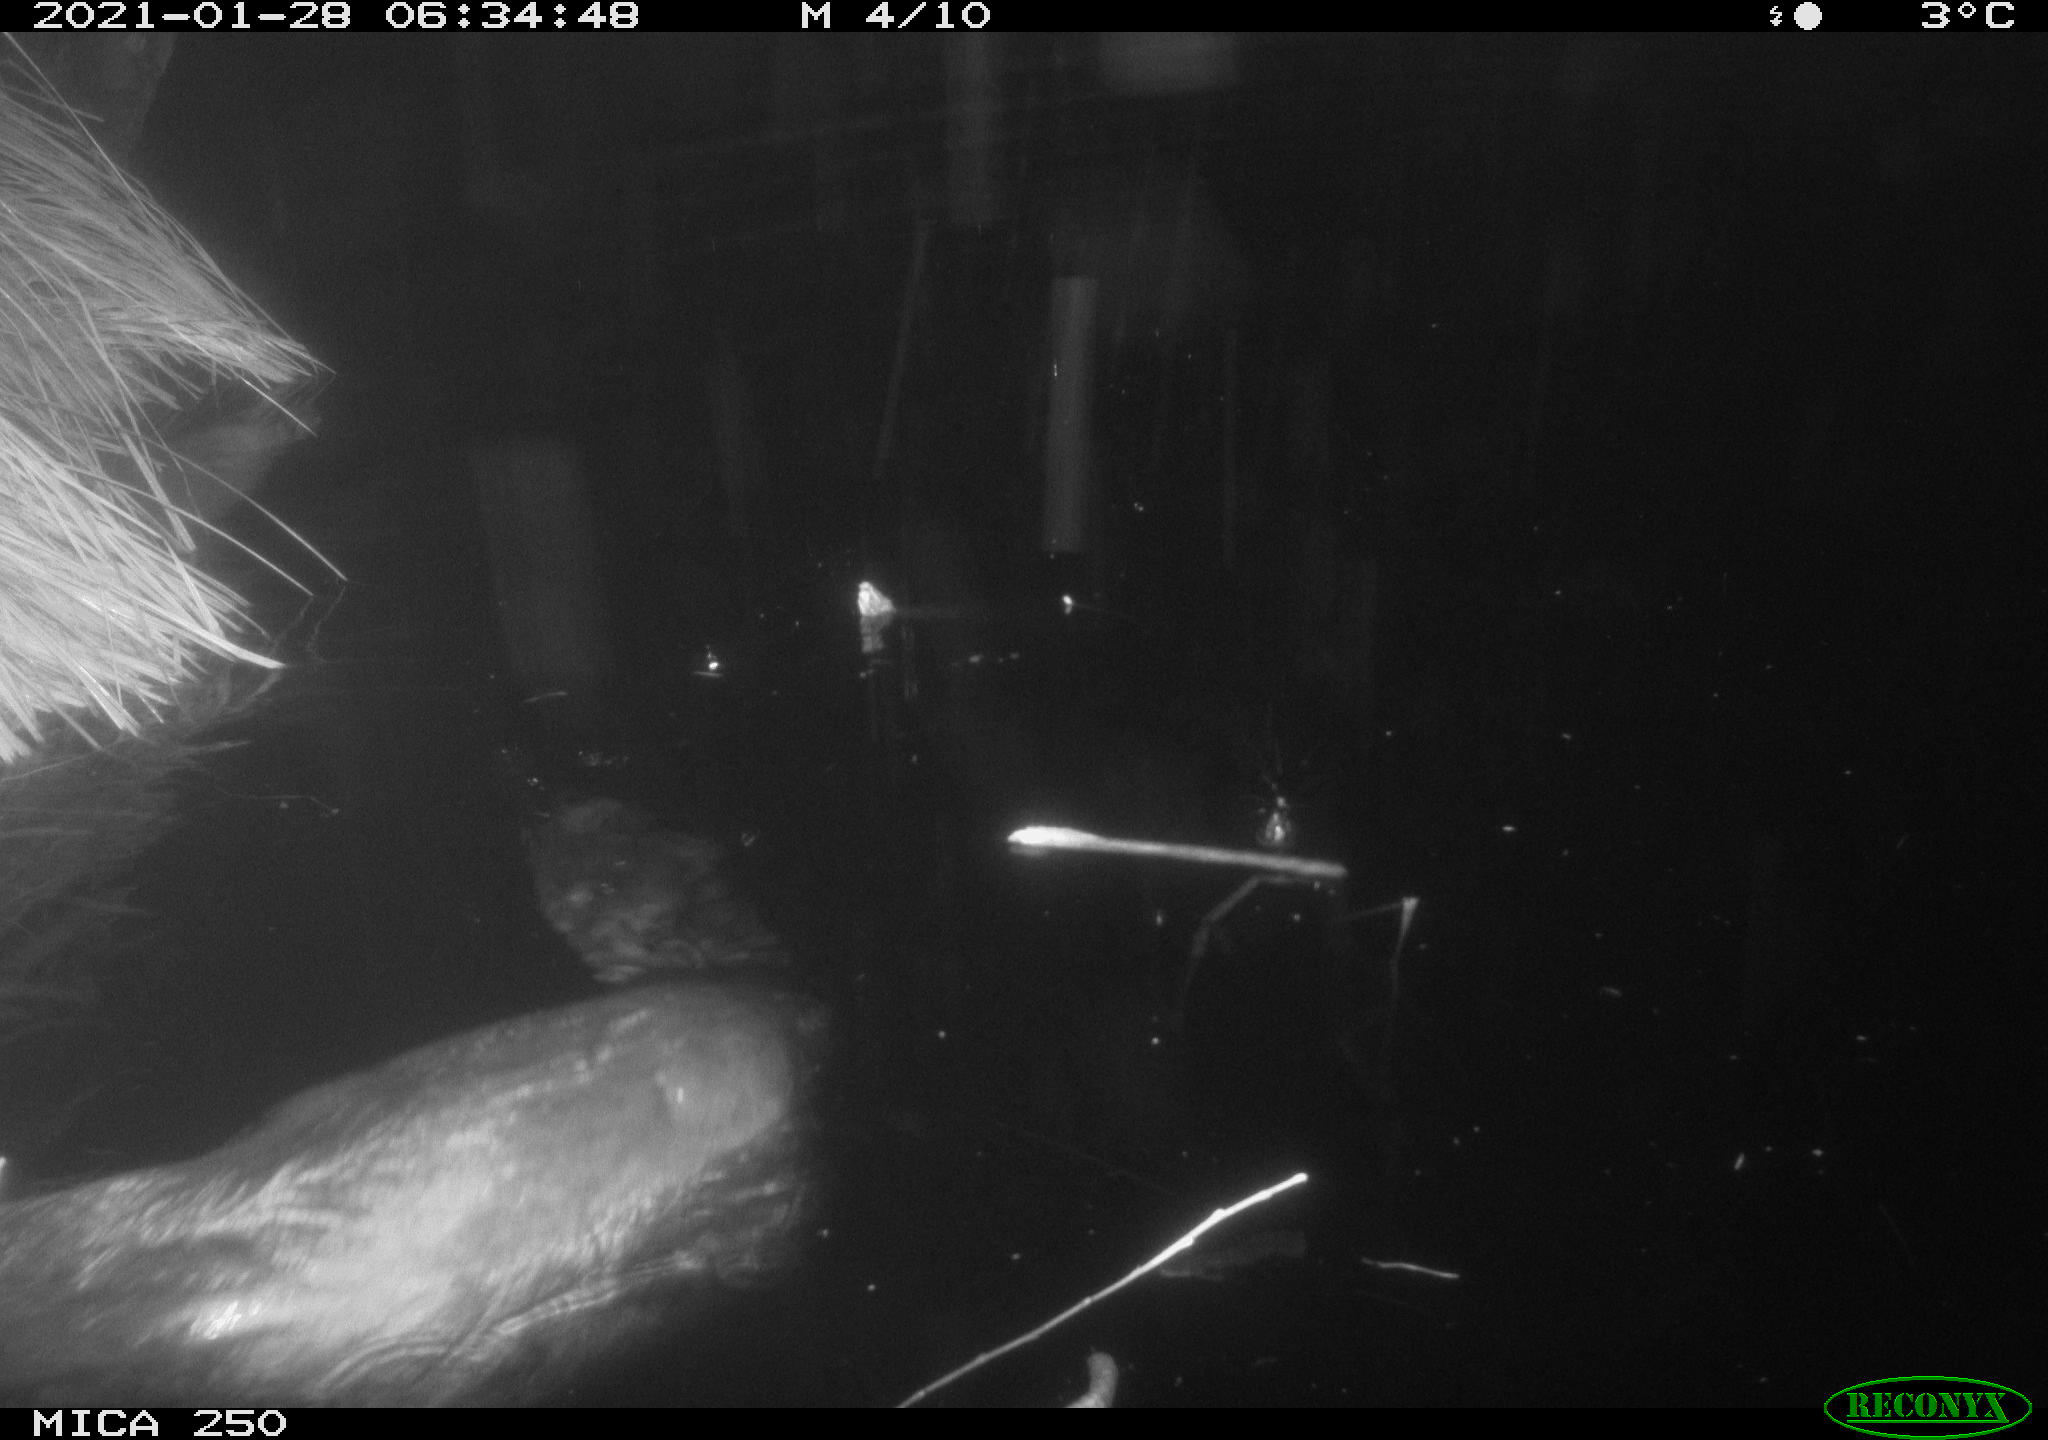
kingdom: Animalia
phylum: Chordata
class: Mammalia
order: Rodentia
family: Castoridae
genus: Castor
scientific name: Castor fiber
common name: Eurasian beaver
